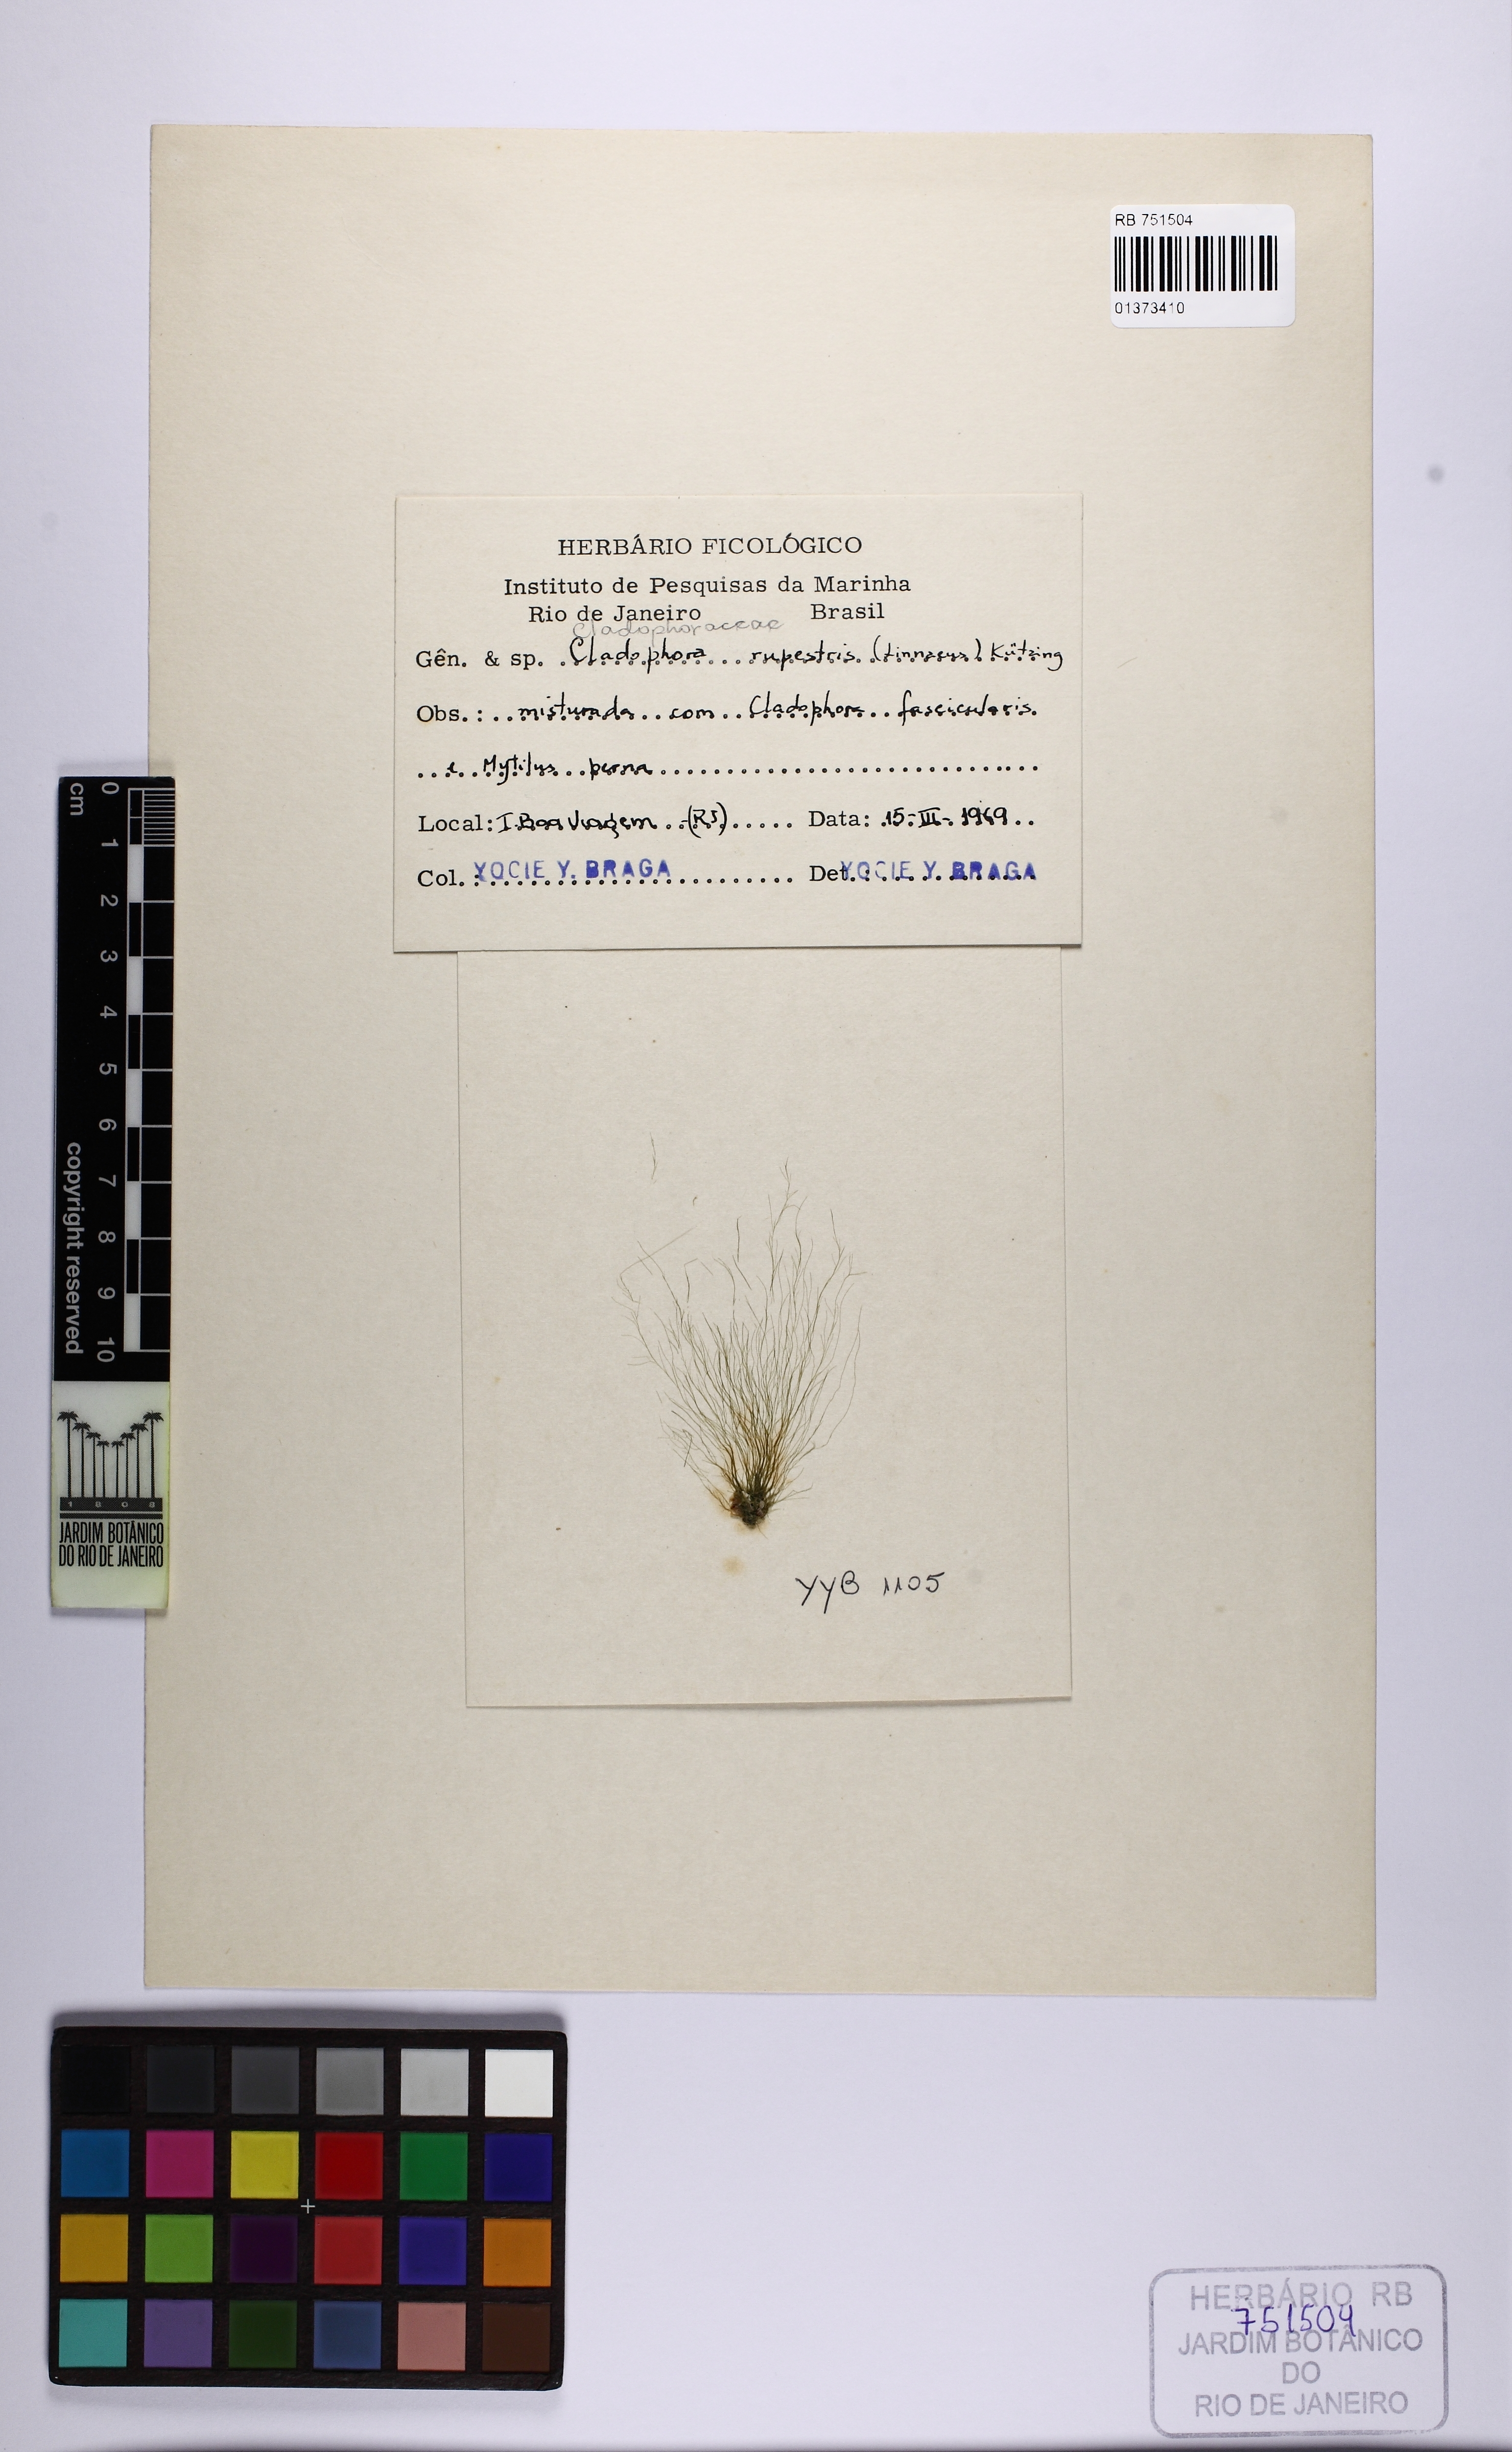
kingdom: Plantae
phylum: Chlorophyta
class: Ulvophyceae
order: Cladophorales
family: Cladophoraceae
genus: Cladophora
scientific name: Cladophora rupestris
